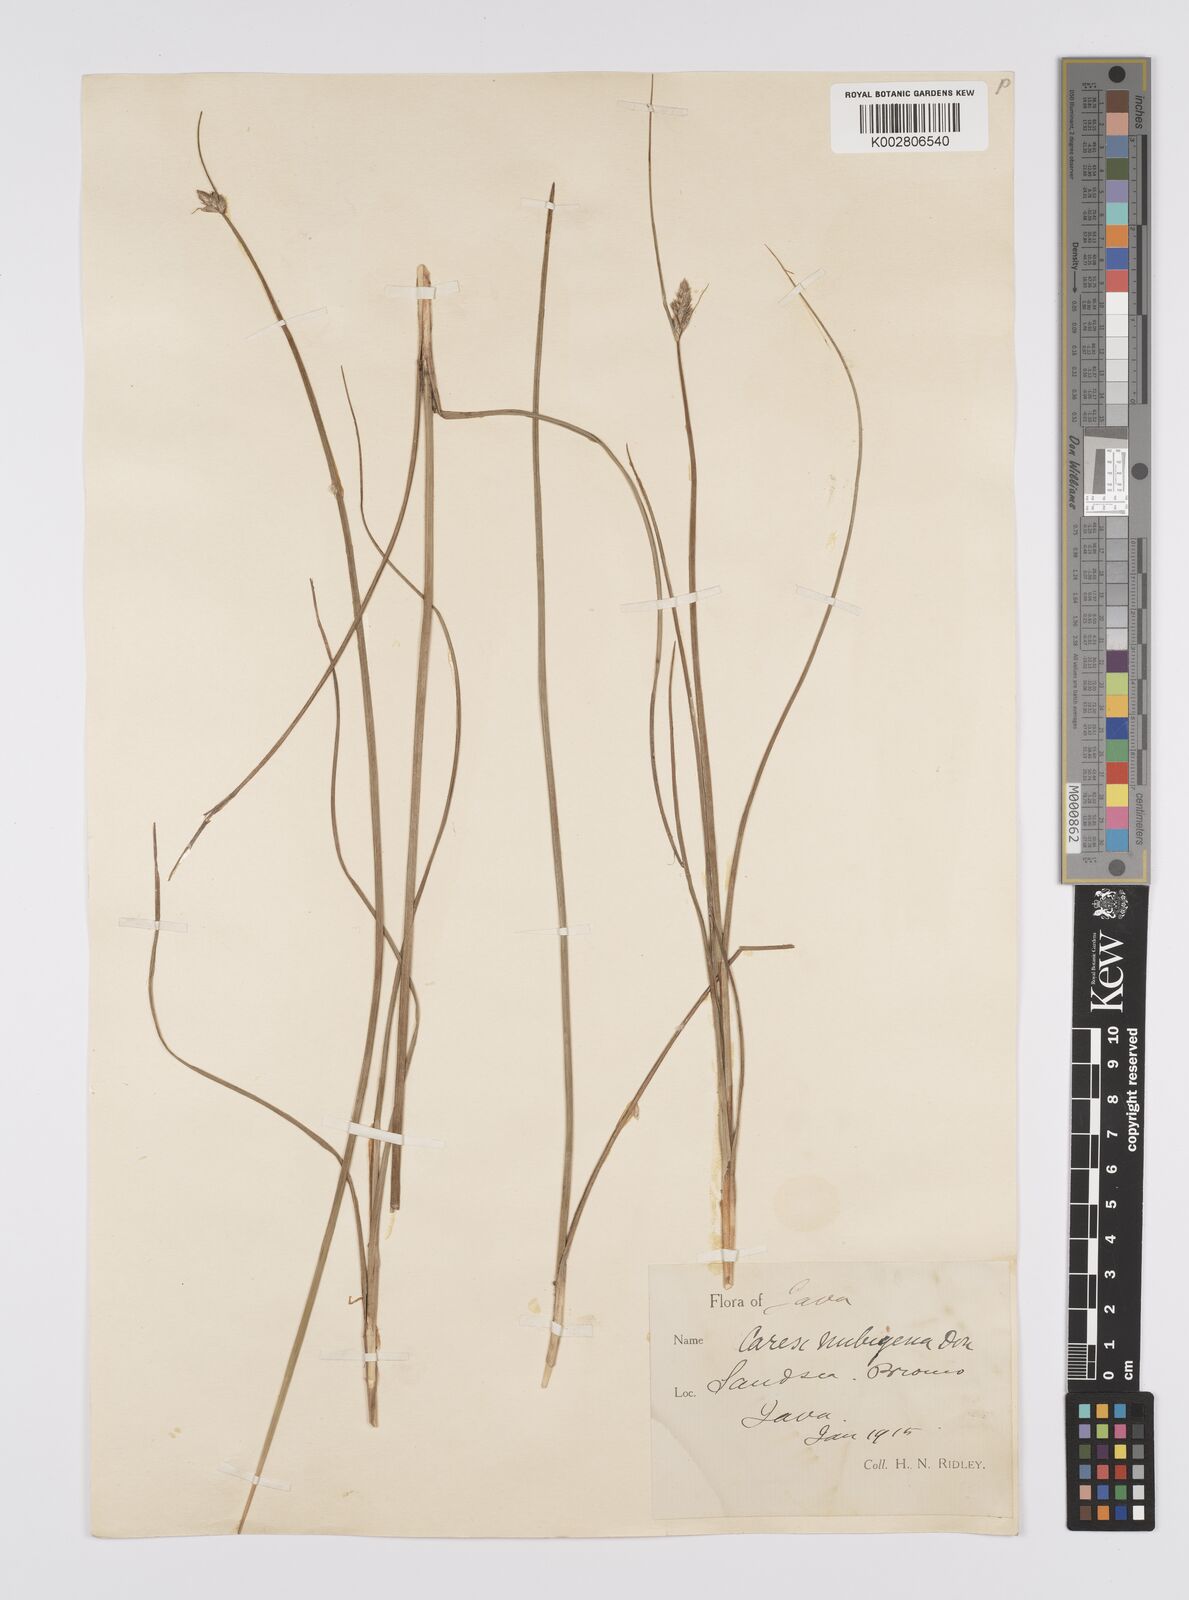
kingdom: Plantae
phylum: Tracheophyta
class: Liliopsida
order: Poales
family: Cyperaceae
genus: Carex
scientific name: Carex
